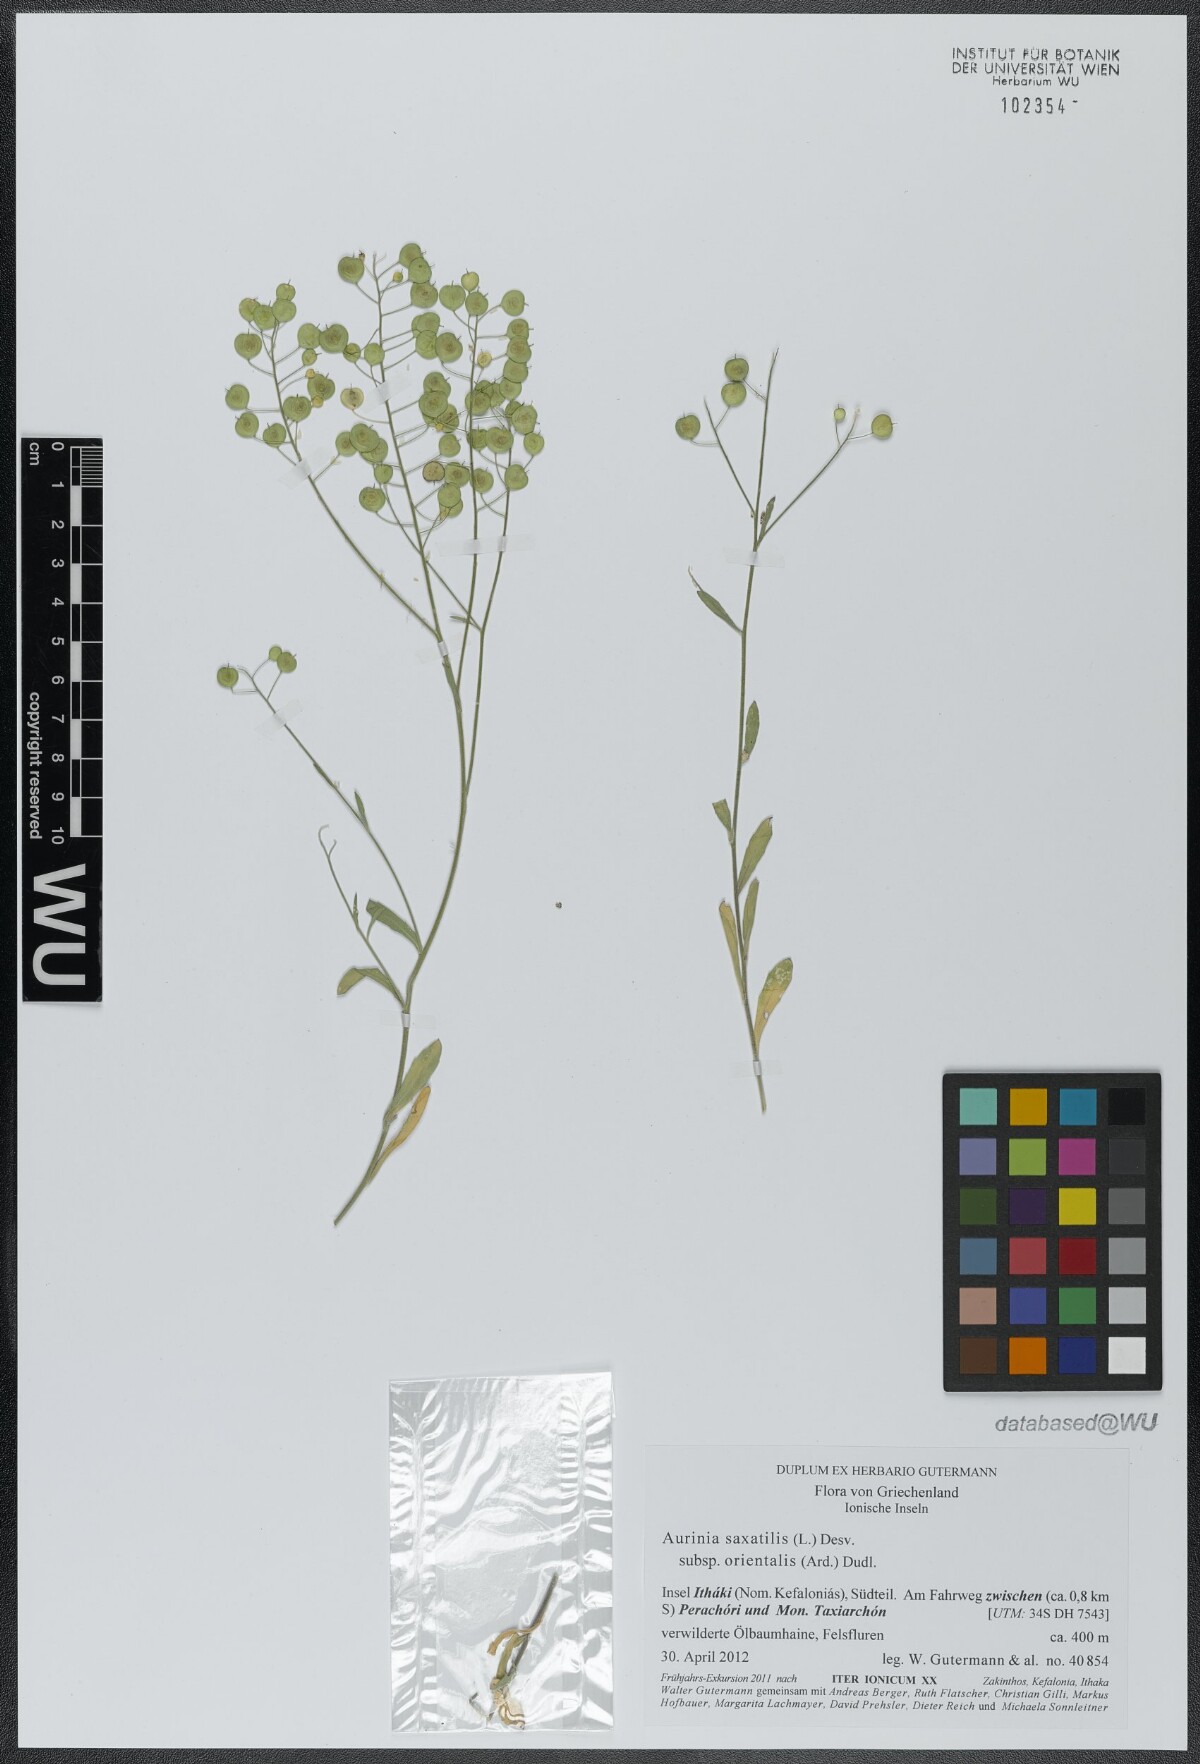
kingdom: Plantae
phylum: Tracheophyta
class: Magnoliopsida
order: Brassicales
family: Brassicaceae
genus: Aurinia
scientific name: Aurinia saxatilis
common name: Golden-tuft alyssum
